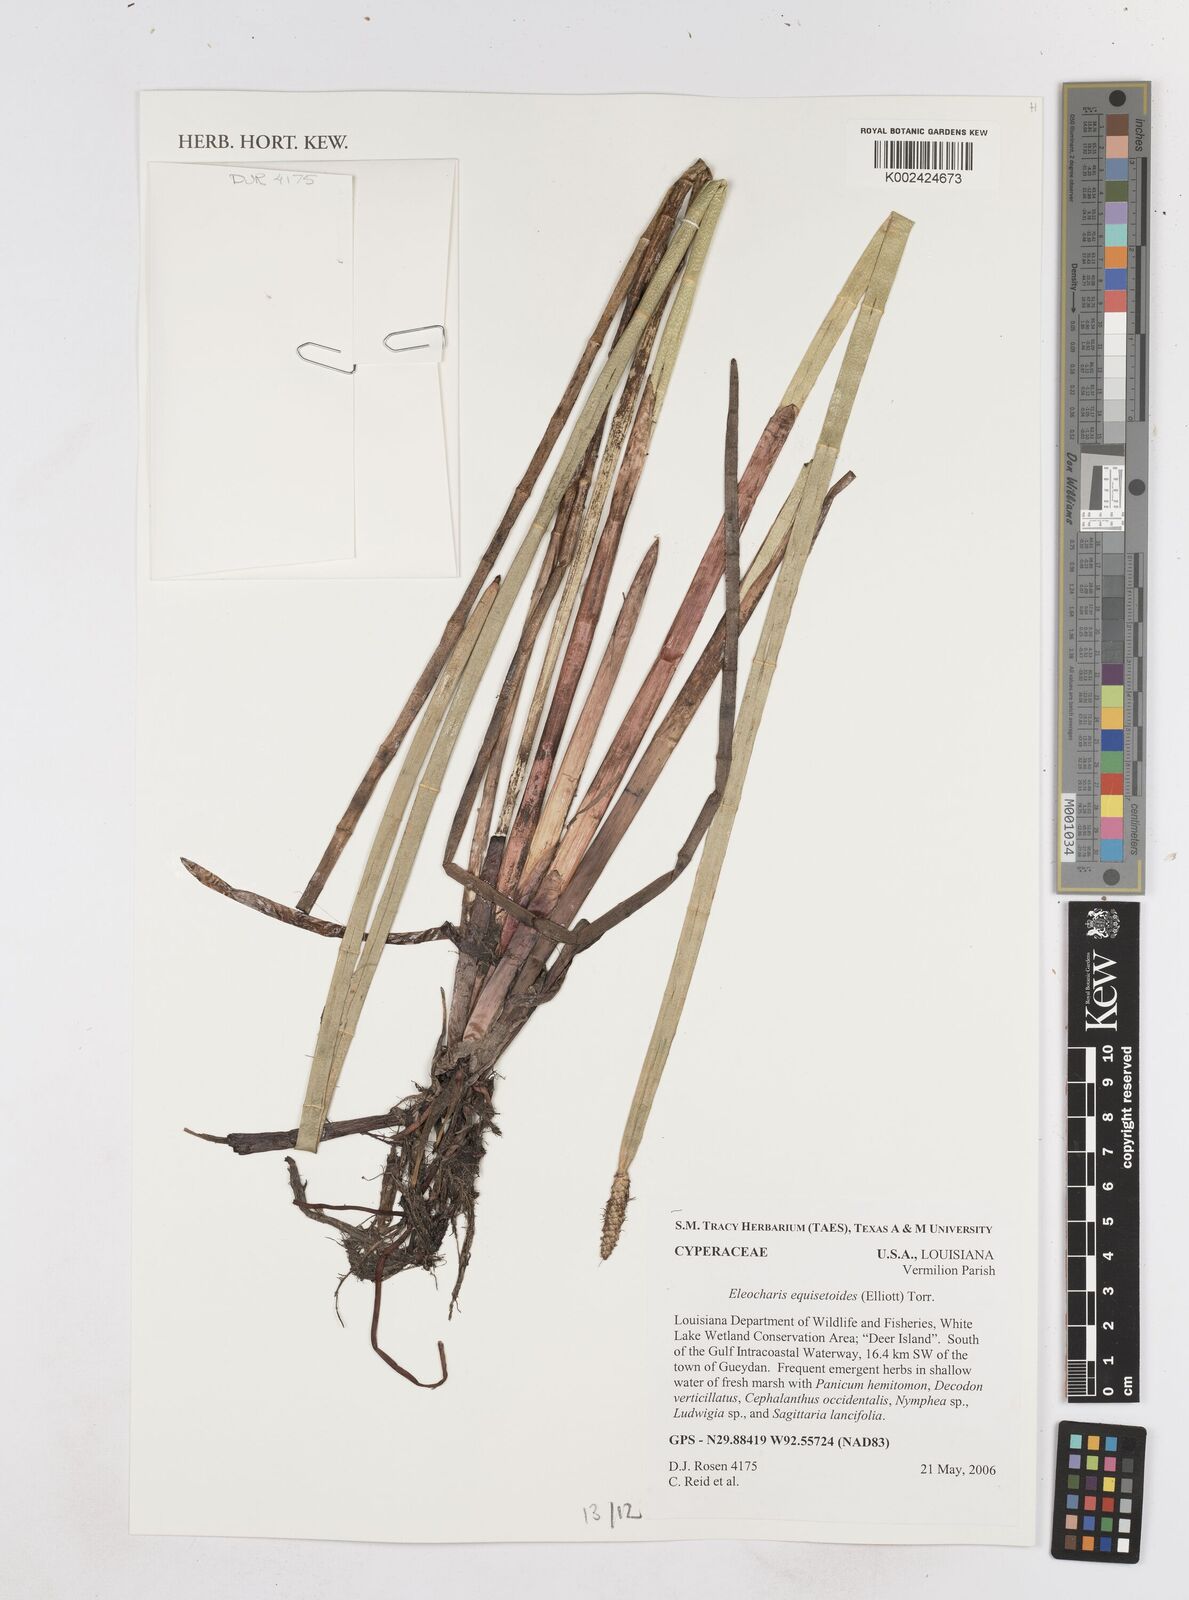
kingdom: Plantae
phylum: Tracheophyta
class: Liliopsida
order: Poales
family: Cyperaceae
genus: Eleocharis
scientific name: Eleocharis equisetoides
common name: Horsetail spike-rush
